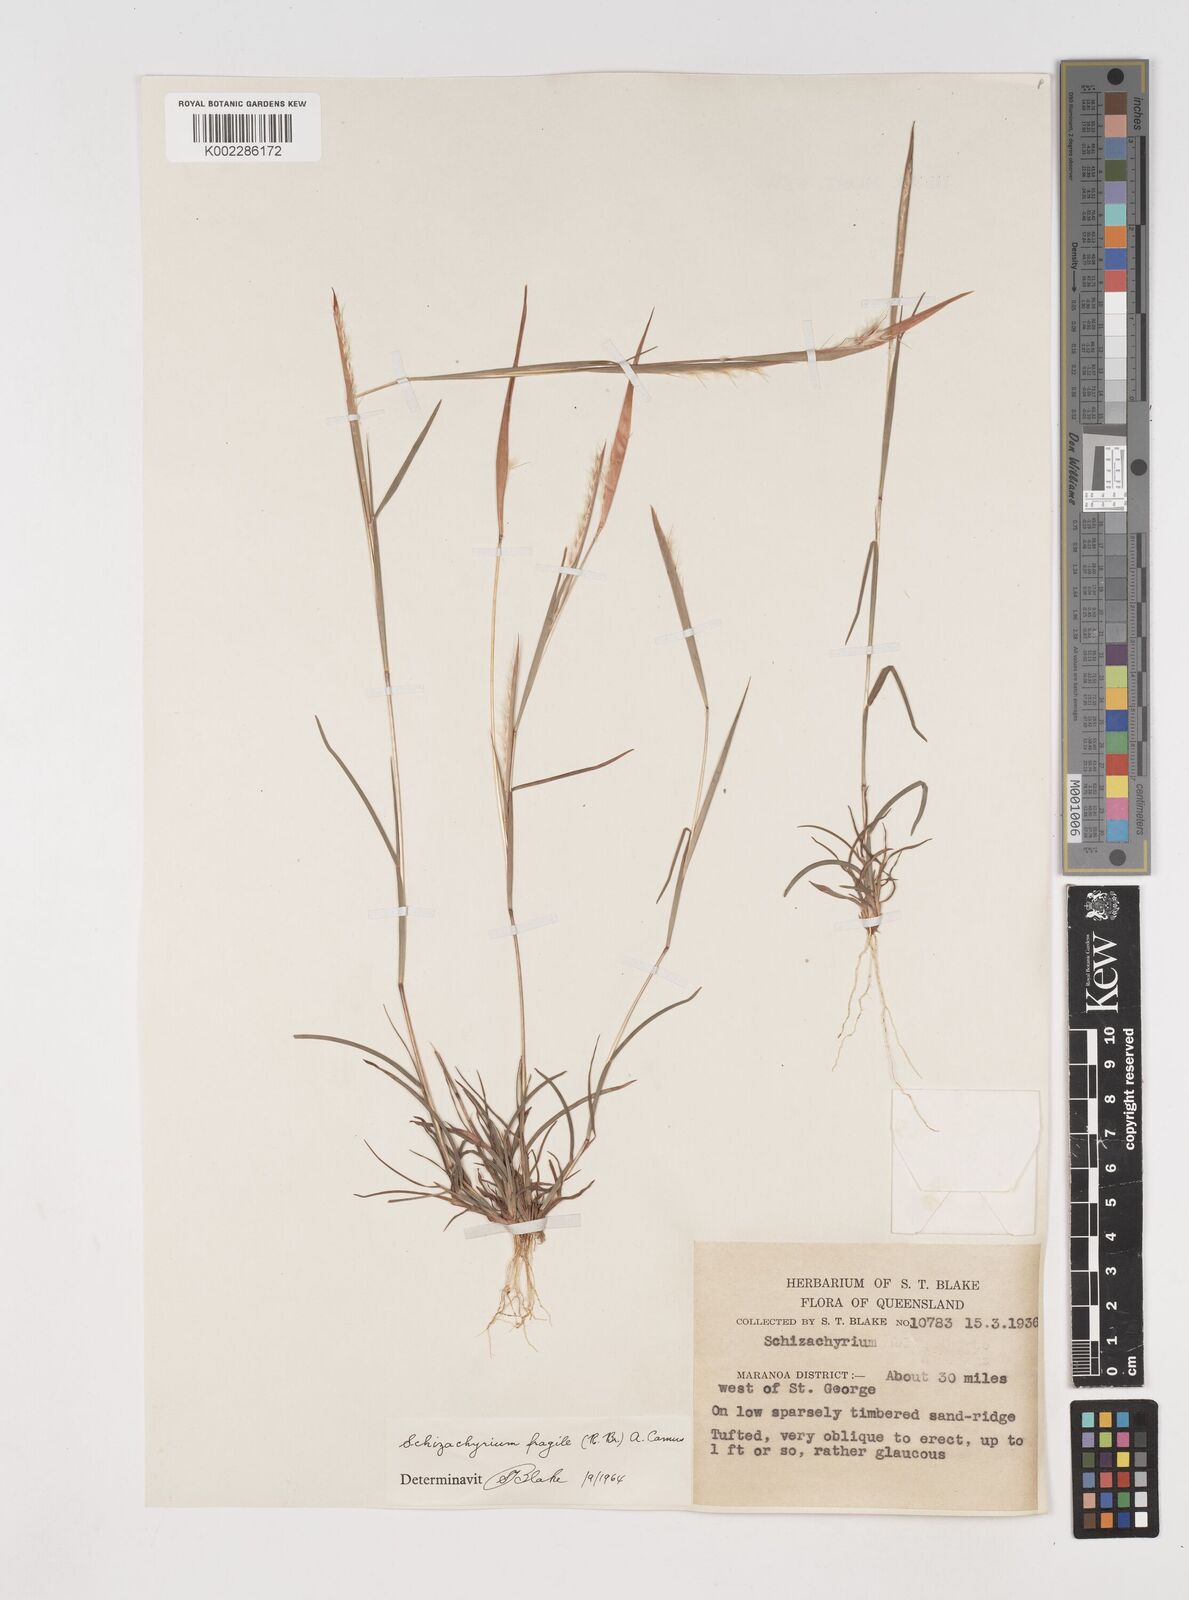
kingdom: Plantae
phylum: Tracheophyta
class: Liliopsida
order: Poales
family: Poaceae
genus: Schizachyrium
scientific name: Schizachyrium fragile
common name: Red spathe grass
